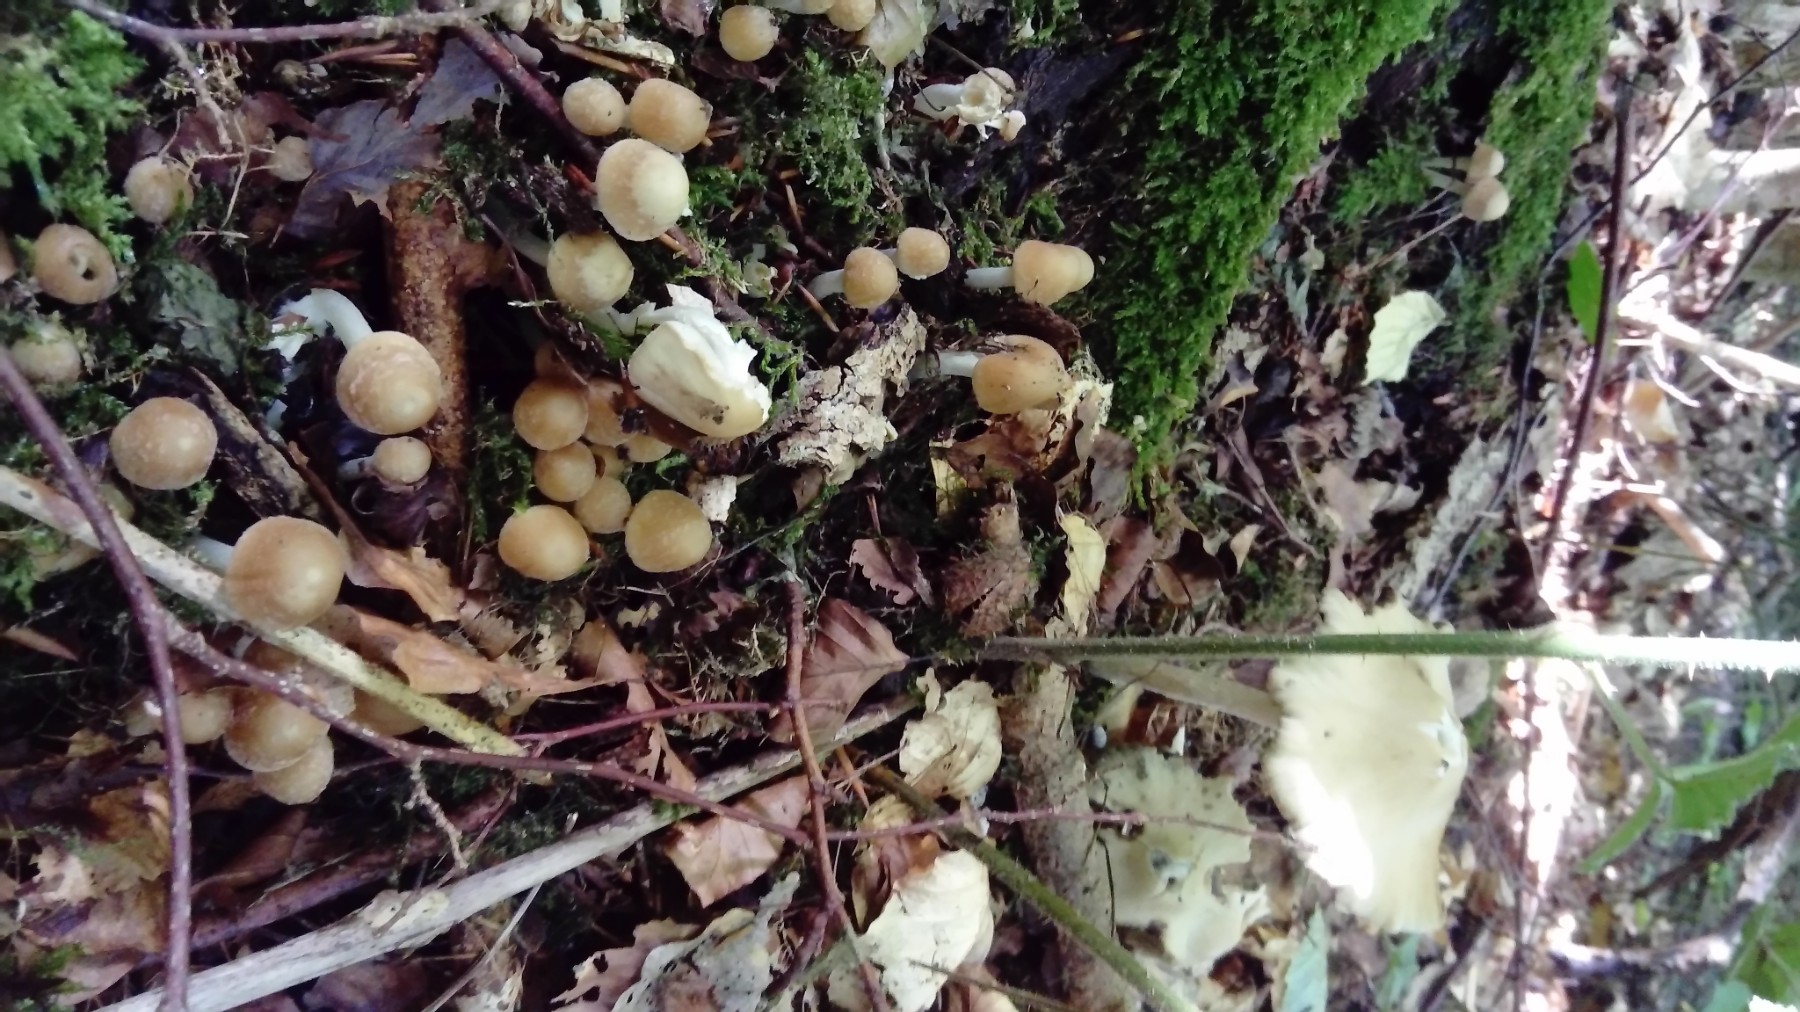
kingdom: Fungi
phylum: Basidiomycota
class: Agaricomycetes
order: Agaricales
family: Psathyrellaceae
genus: Candolleomyces
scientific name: Candolleomyces candolleanus
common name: Candolles mørkhat
